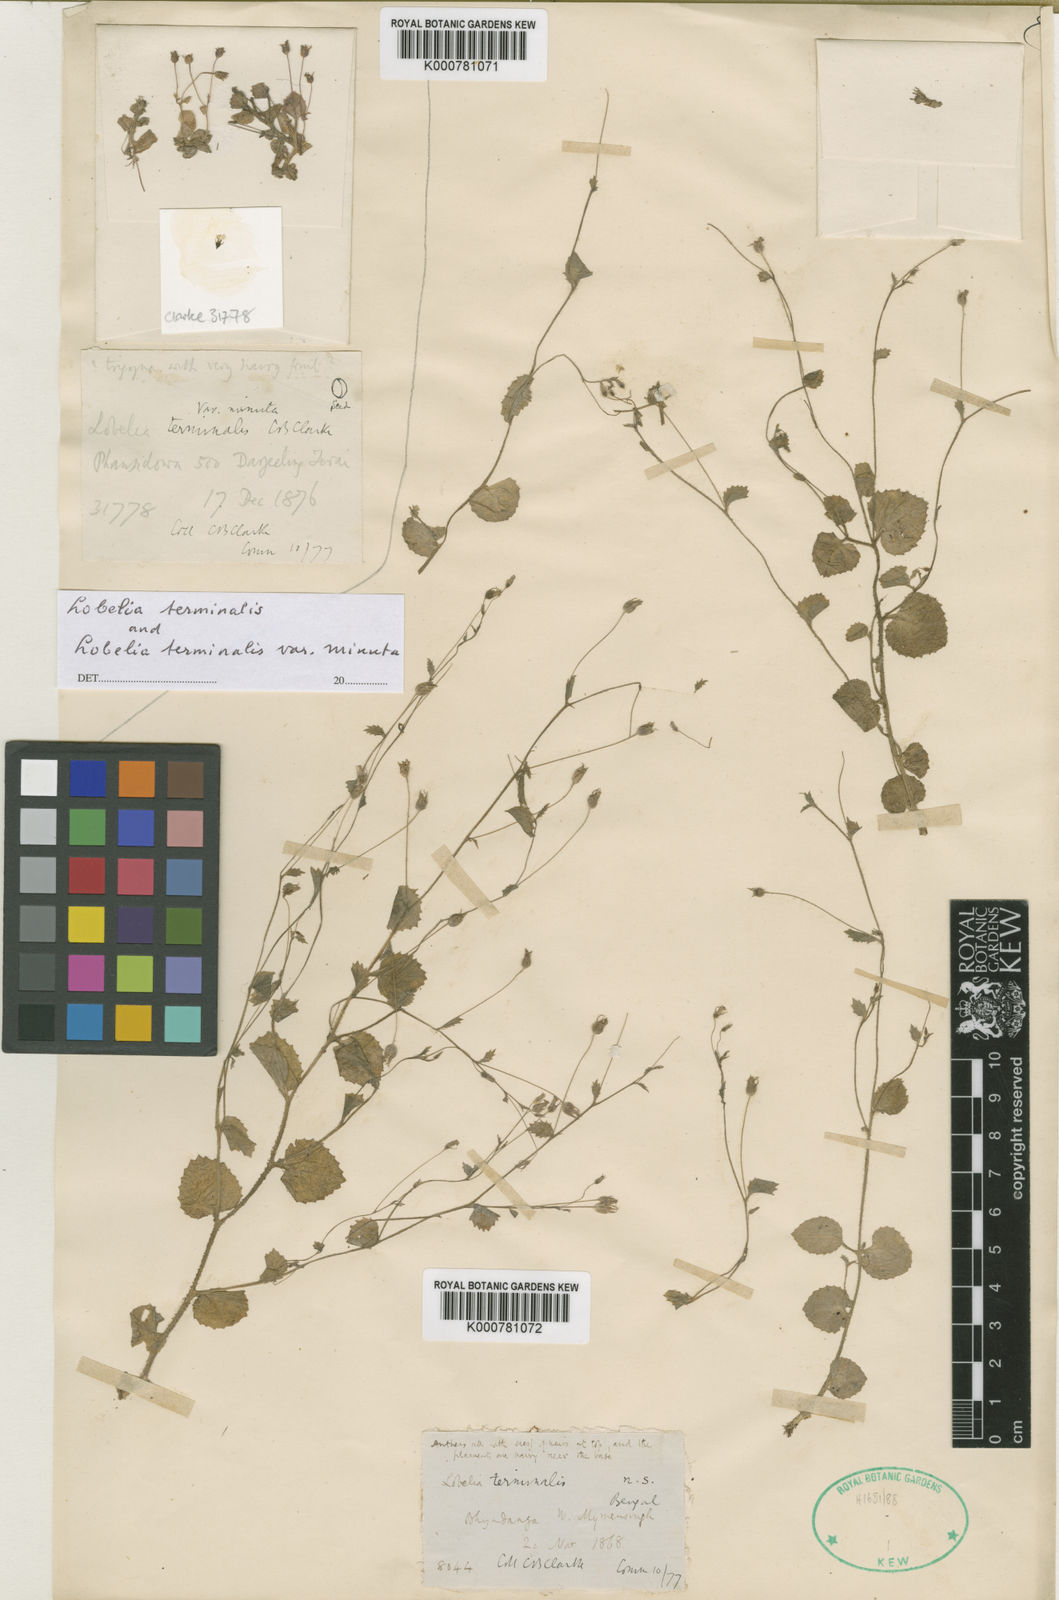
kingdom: Plantae
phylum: Tracheophyta
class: Magnoliopsida
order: Asterales
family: Campanulaceae
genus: Lobelia
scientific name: Lobelia alsinoides
